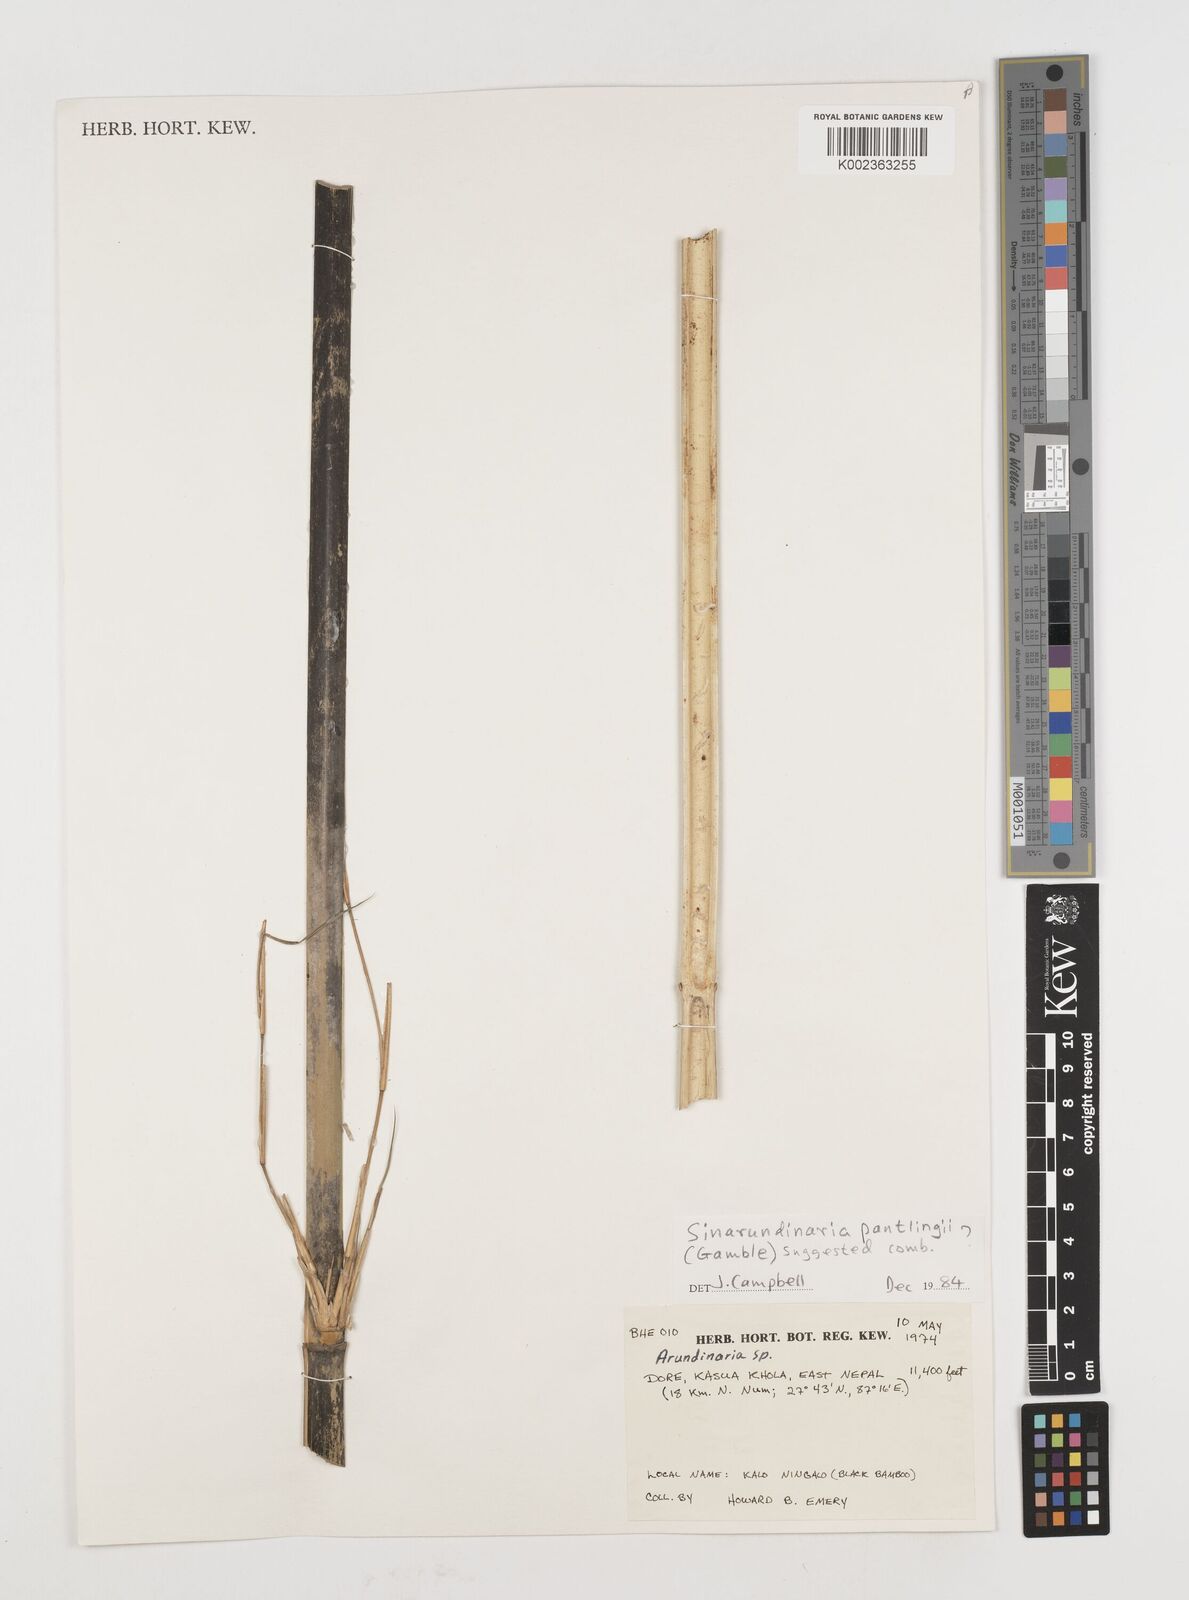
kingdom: Plantae
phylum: Tracheophyta
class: Liliopsida
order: Poales
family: Poaceae
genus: Fargesia
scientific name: Fargesia
